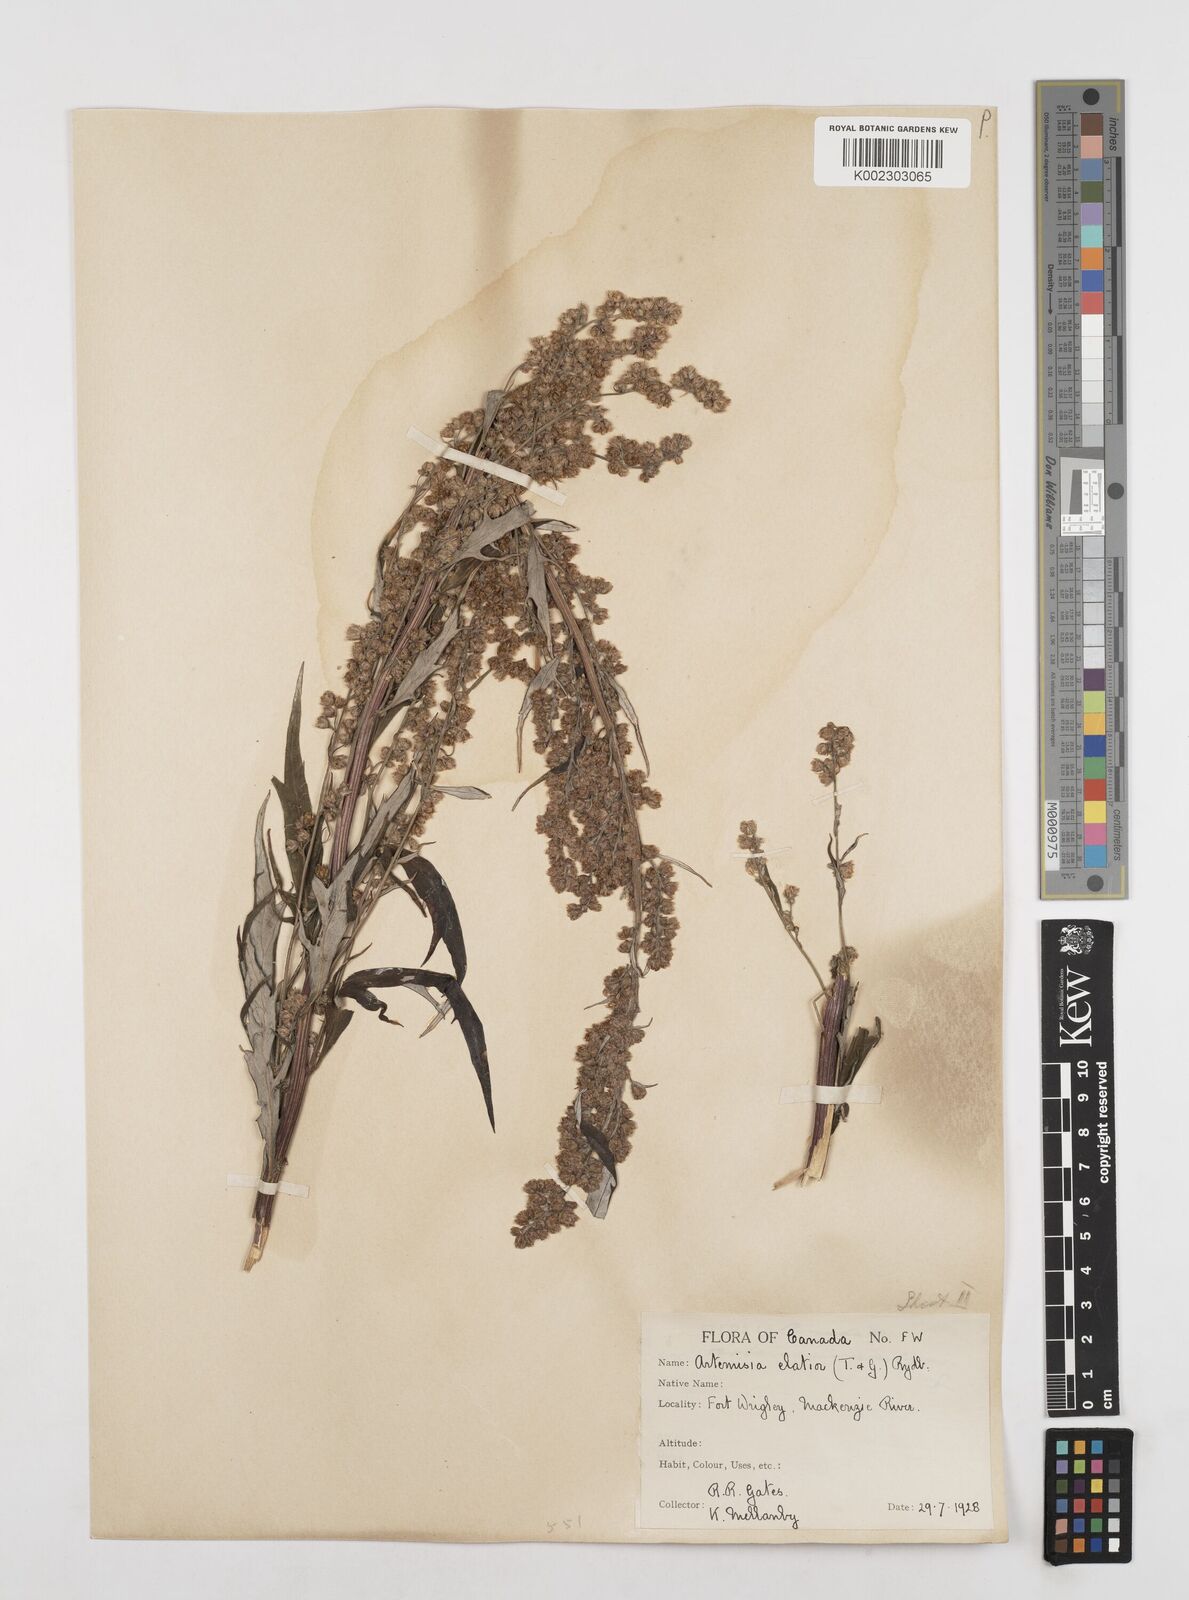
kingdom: Plantae
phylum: Tracheophyta
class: Magnoliopsida
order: Asterales
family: Asteraceae
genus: Artemisia
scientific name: Artemisia tilesii
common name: Aleutian mugwort
